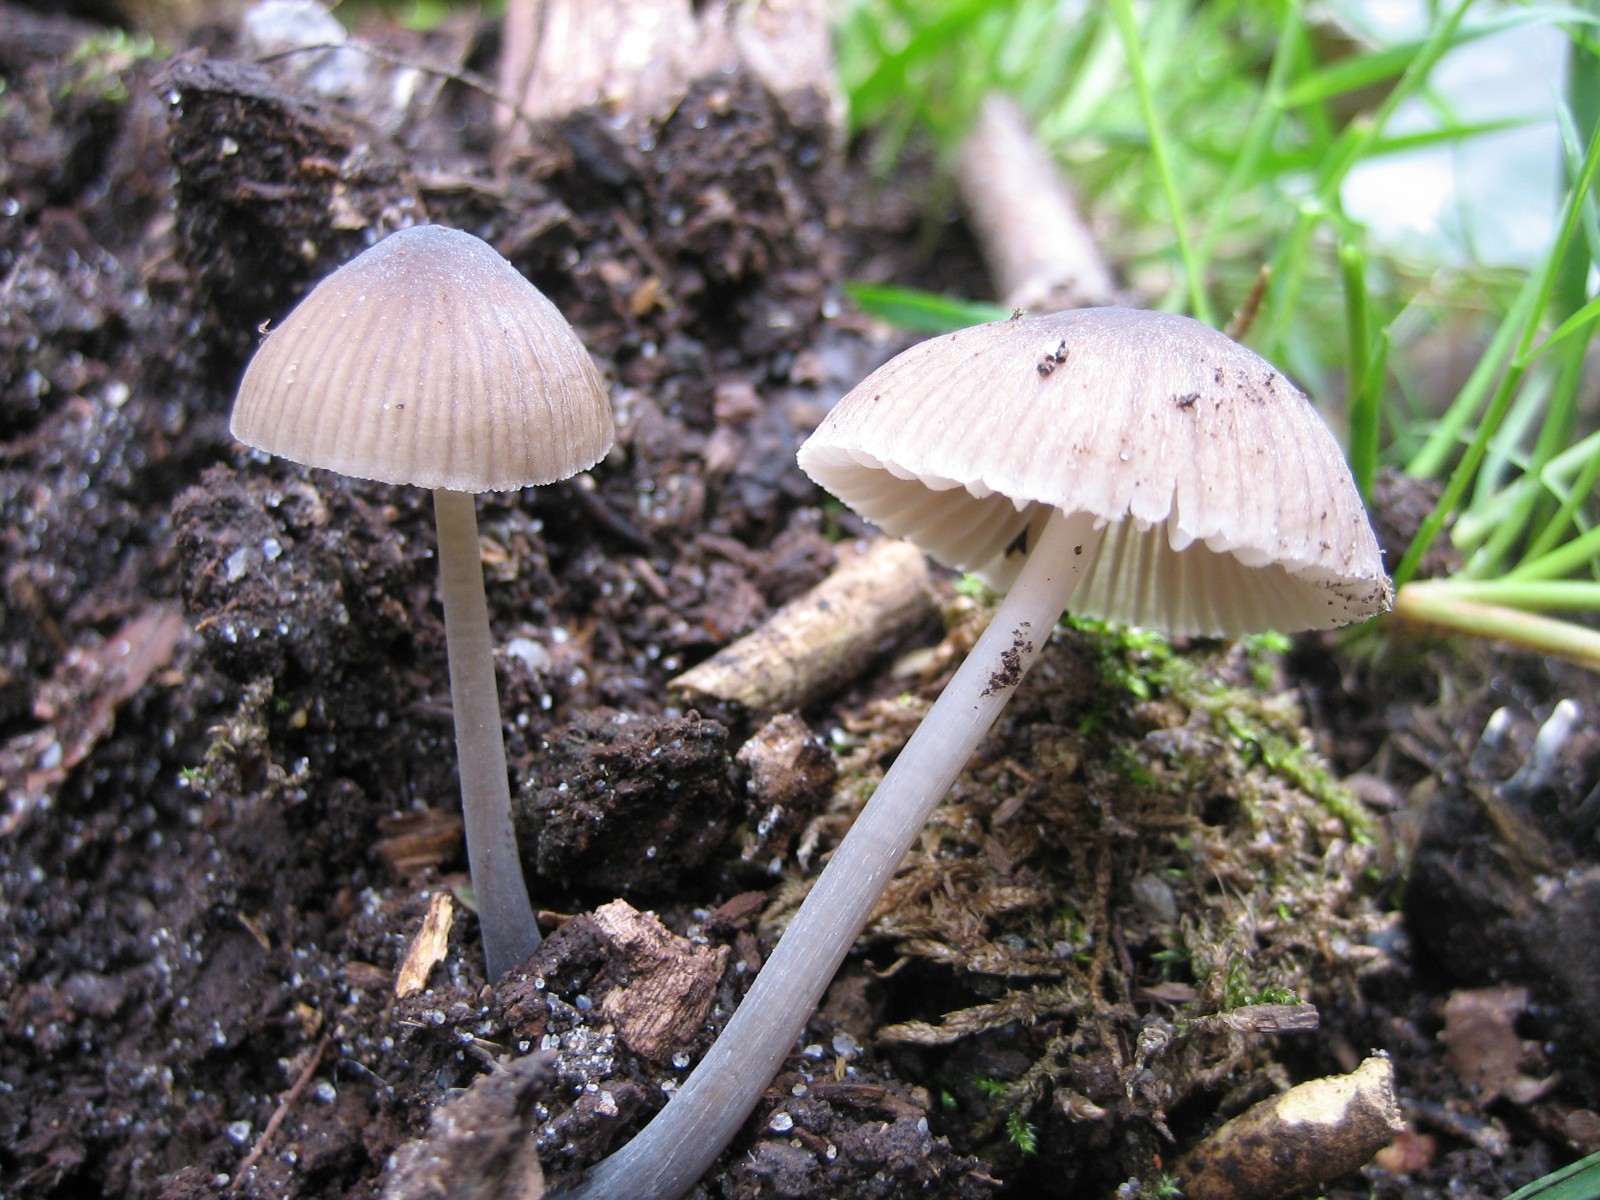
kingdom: Fungi
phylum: Basidiomycota
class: Agaricomycetes
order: Agaricales
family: Mycenaceae
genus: Mycena
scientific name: Mycena
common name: huesvamp
